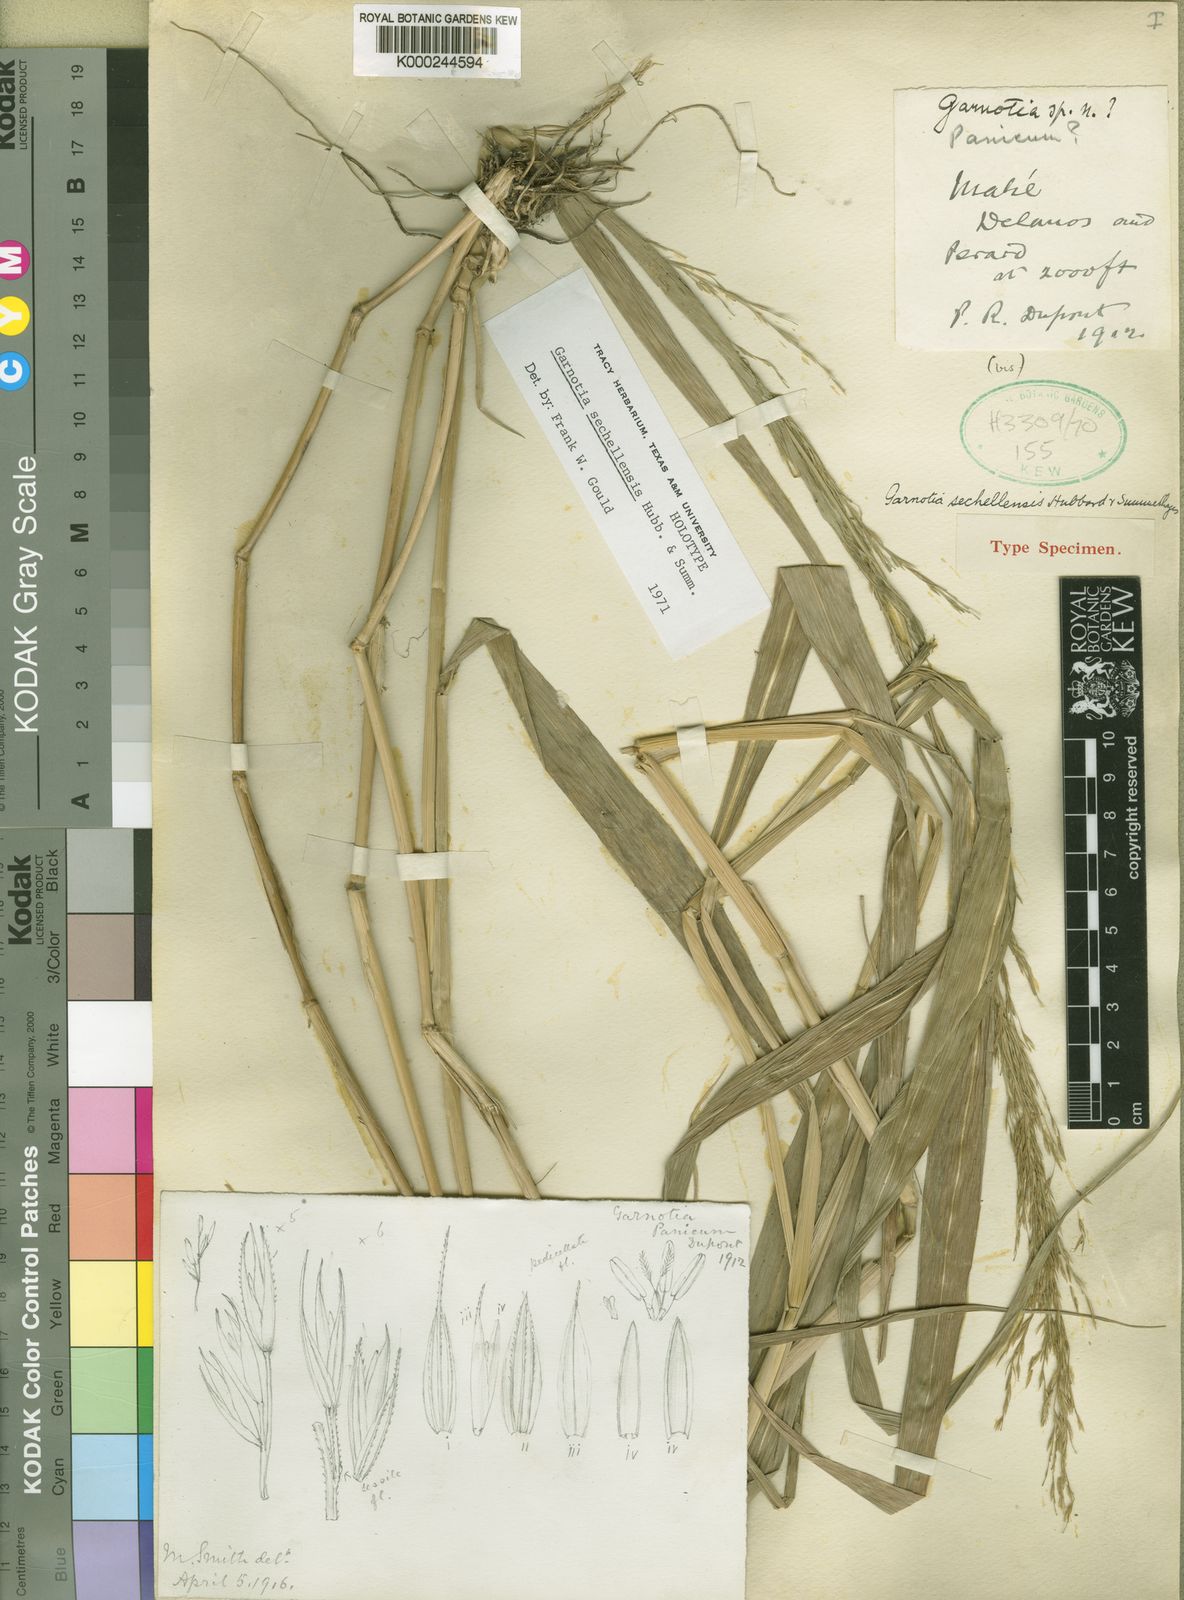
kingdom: Plantae
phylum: Tracheophyta
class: Liliopsida
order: Poales
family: Poaceae
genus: Garnotia
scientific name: Garnotia sechellensis
